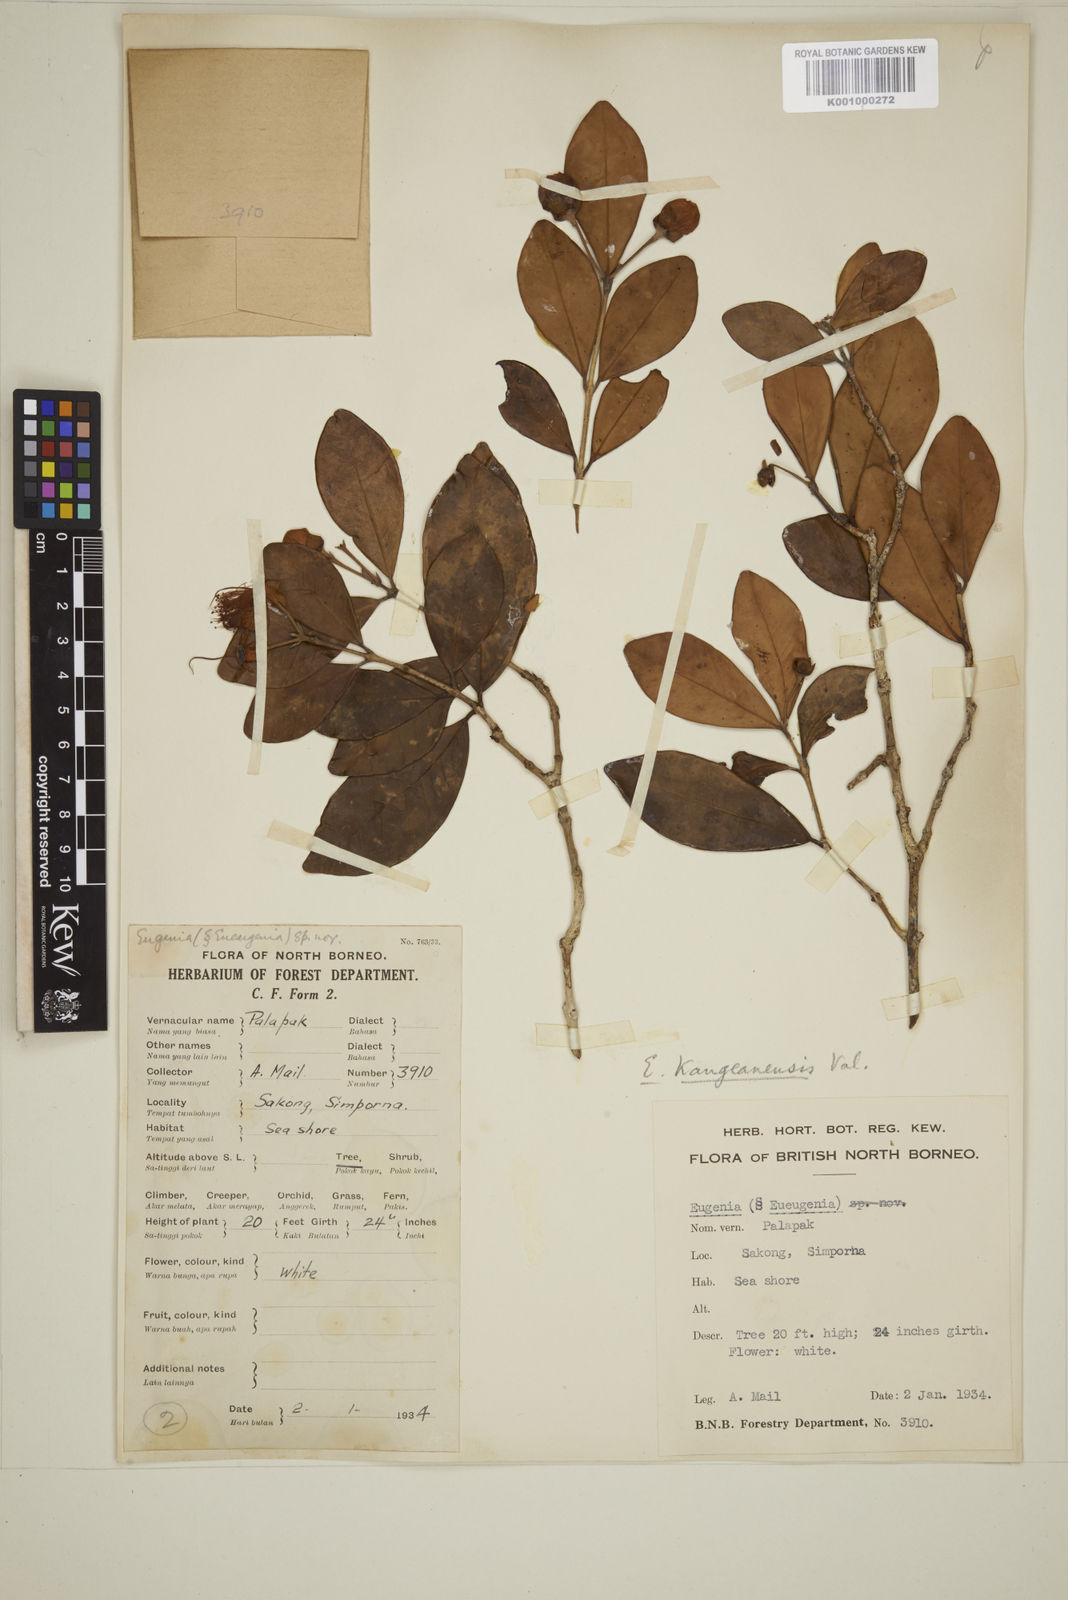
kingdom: Plantae
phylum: Tracheophyta
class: Magnoliopsida
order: Myrtales
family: Myrtaceae
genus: Eugenia
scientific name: Eugenia reinwardtiana
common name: Cedar bay-cherry
